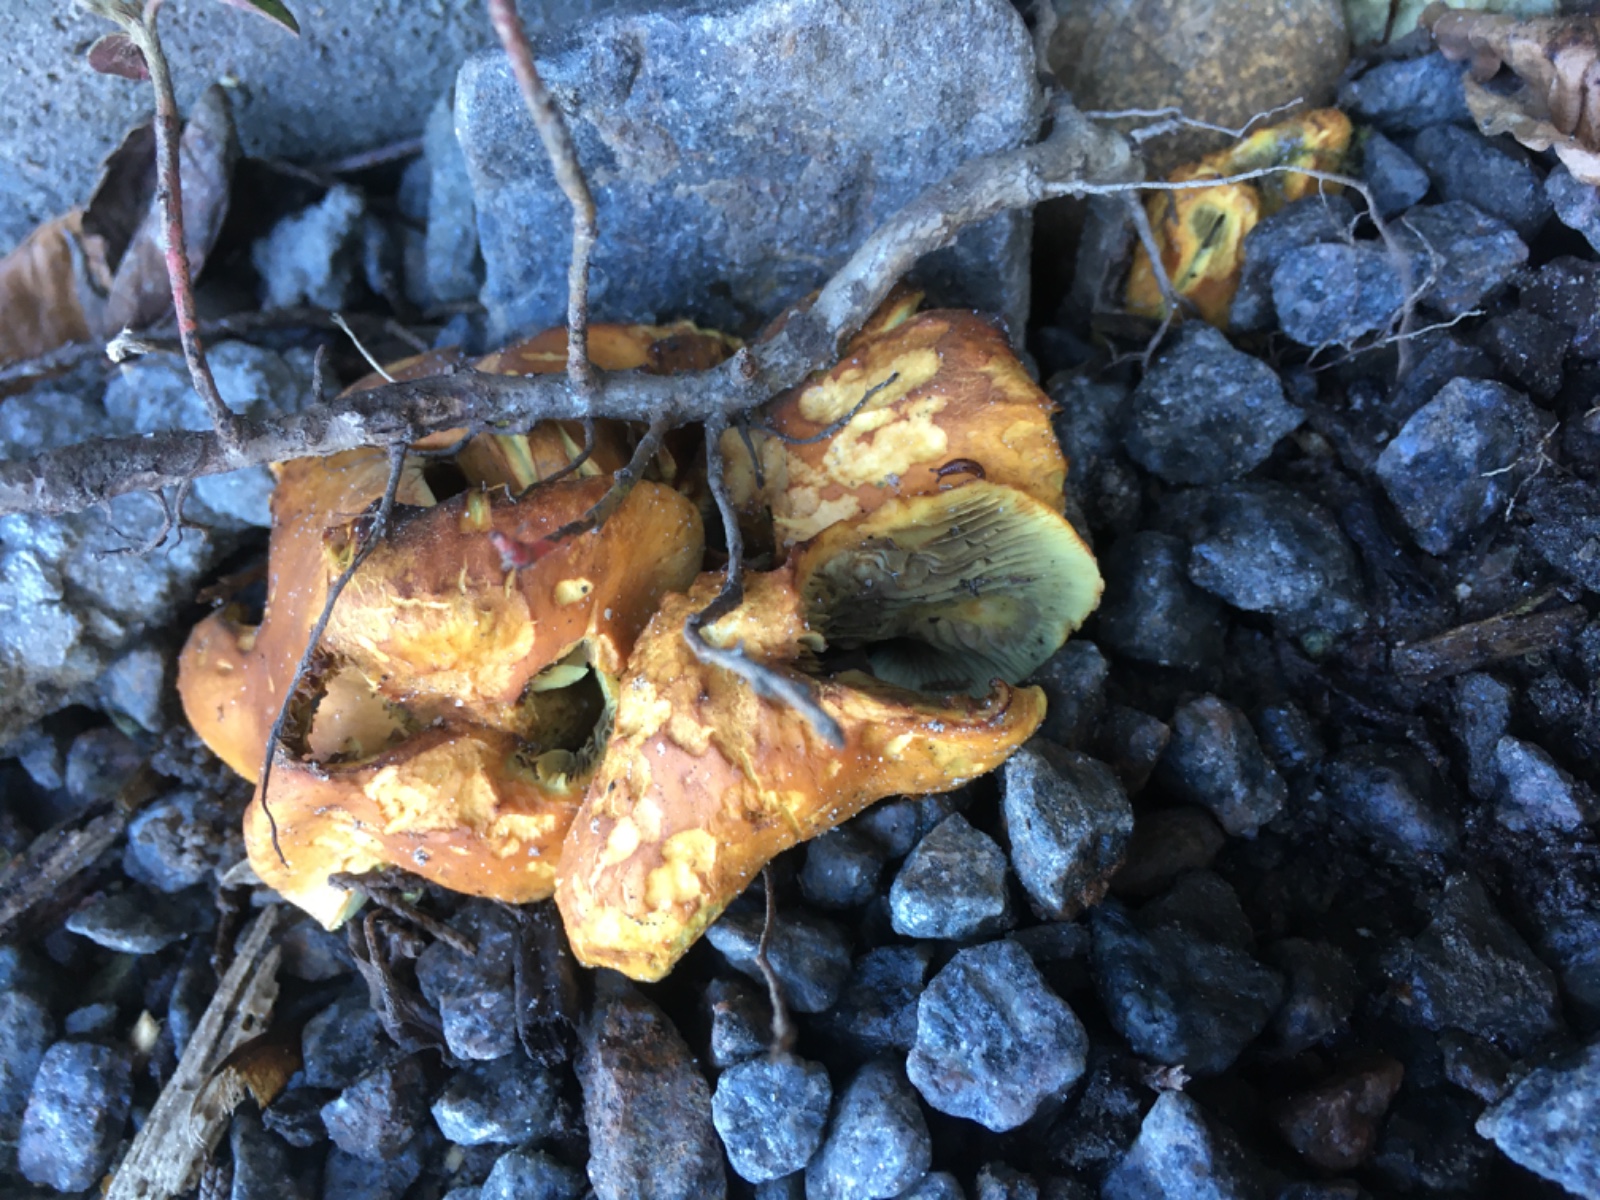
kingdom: Fungi
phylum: Basidiomycota
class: Agaricomycetes
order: Agaricales
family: Strophariaceae
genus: Hypholoma
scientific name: Hypholoma fasciculare
